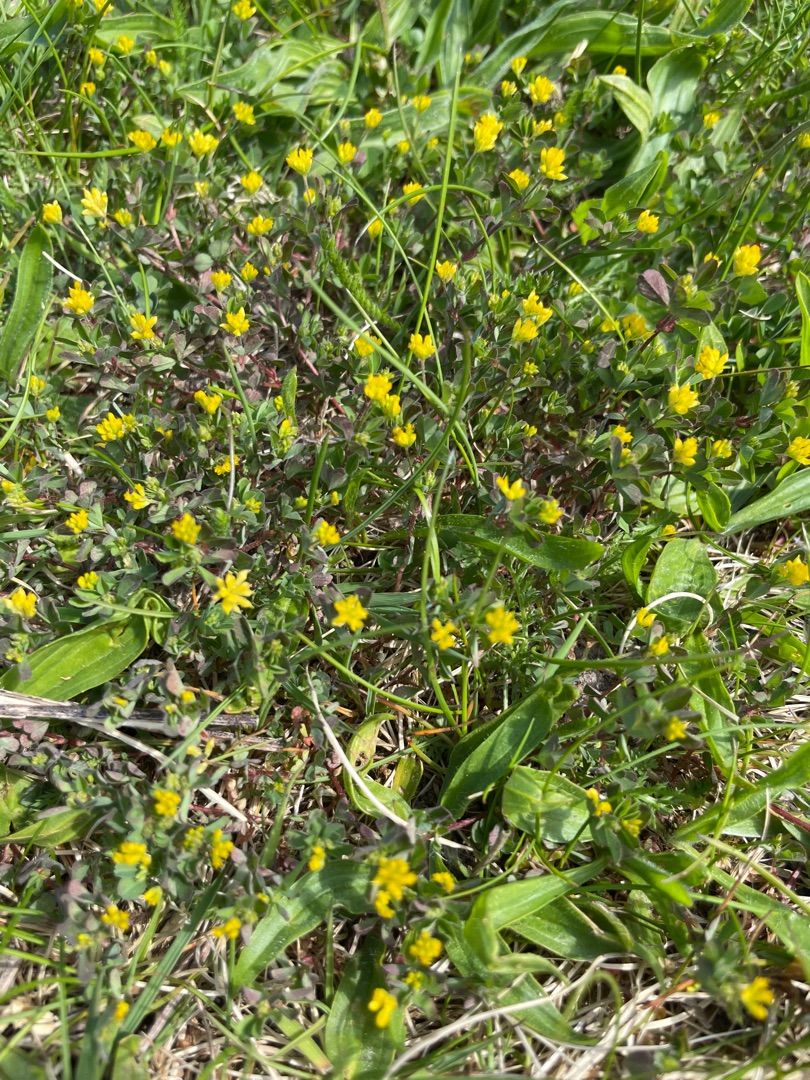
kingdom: Plantae
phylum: Tracheophyta
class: Magnoliopsida
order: Fabales
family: Fabaceae
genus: Trifolium
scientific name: Trifolium dubium
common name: Fin kløver
